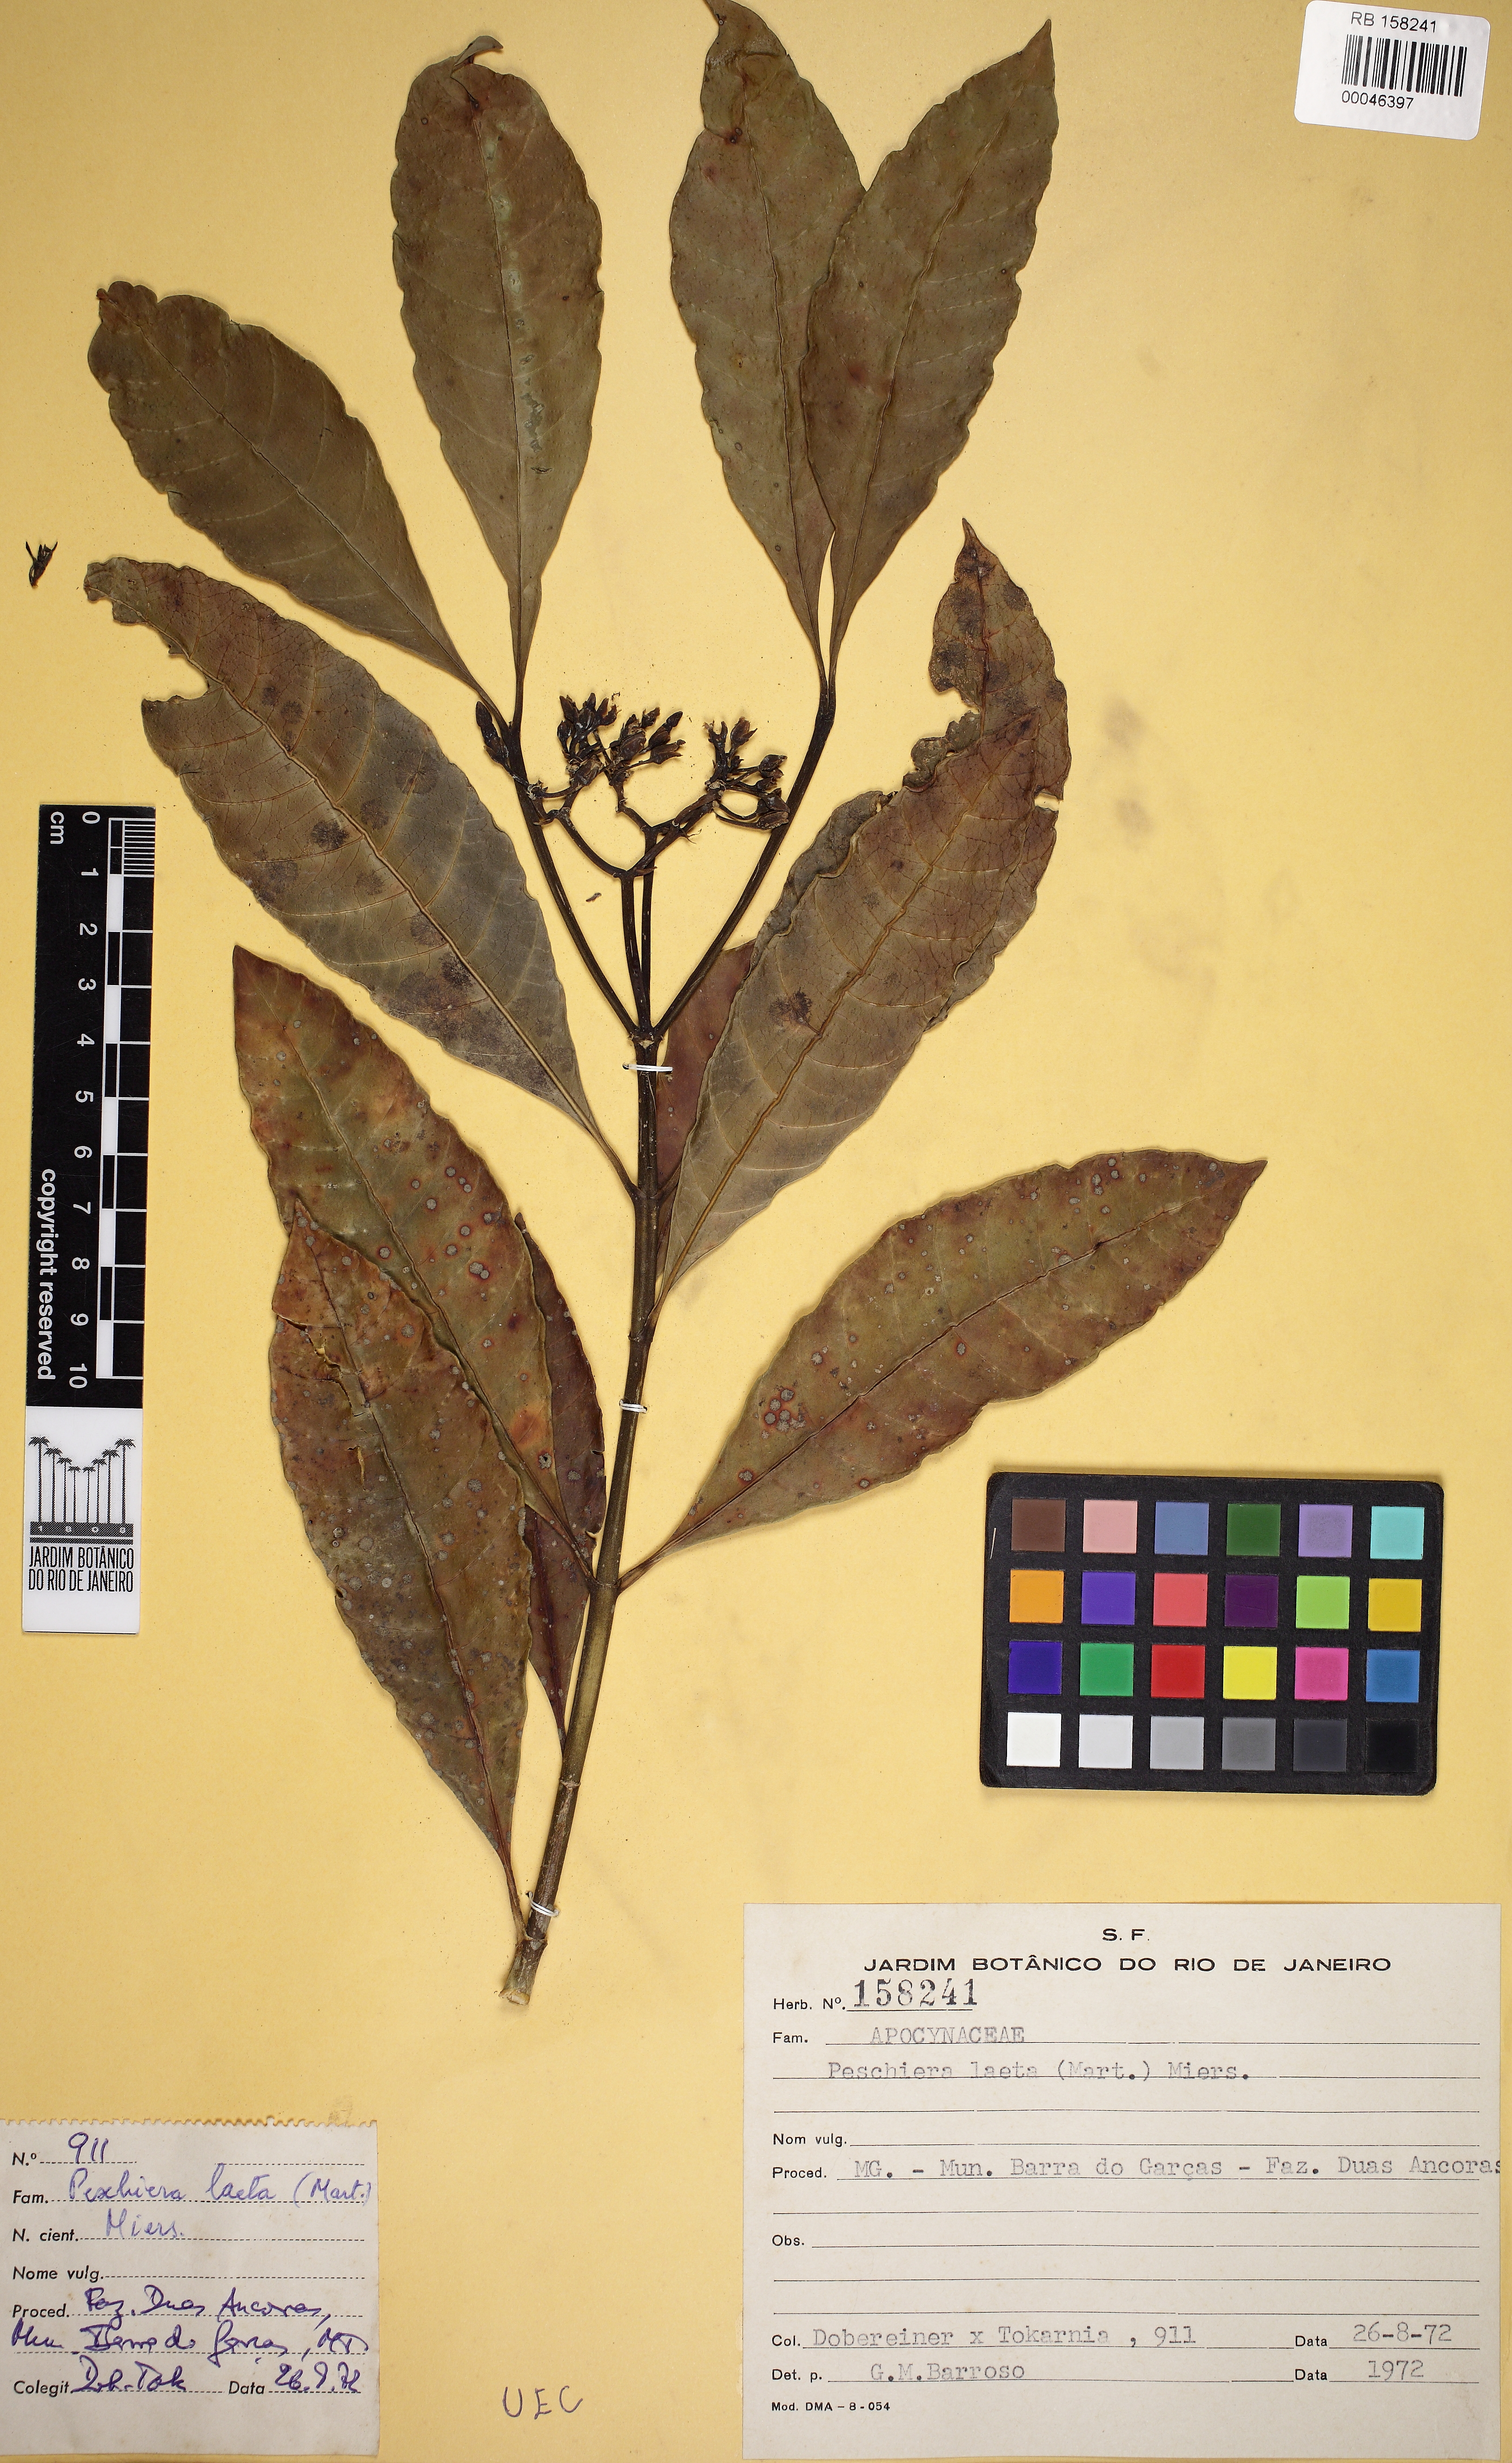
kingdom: Plantae
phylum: Tracheophyta
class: Magnoliopsida
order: Gentianales
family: Apocynaceae
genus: Tabernaemontana
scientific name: Tabernaemontana laeta
